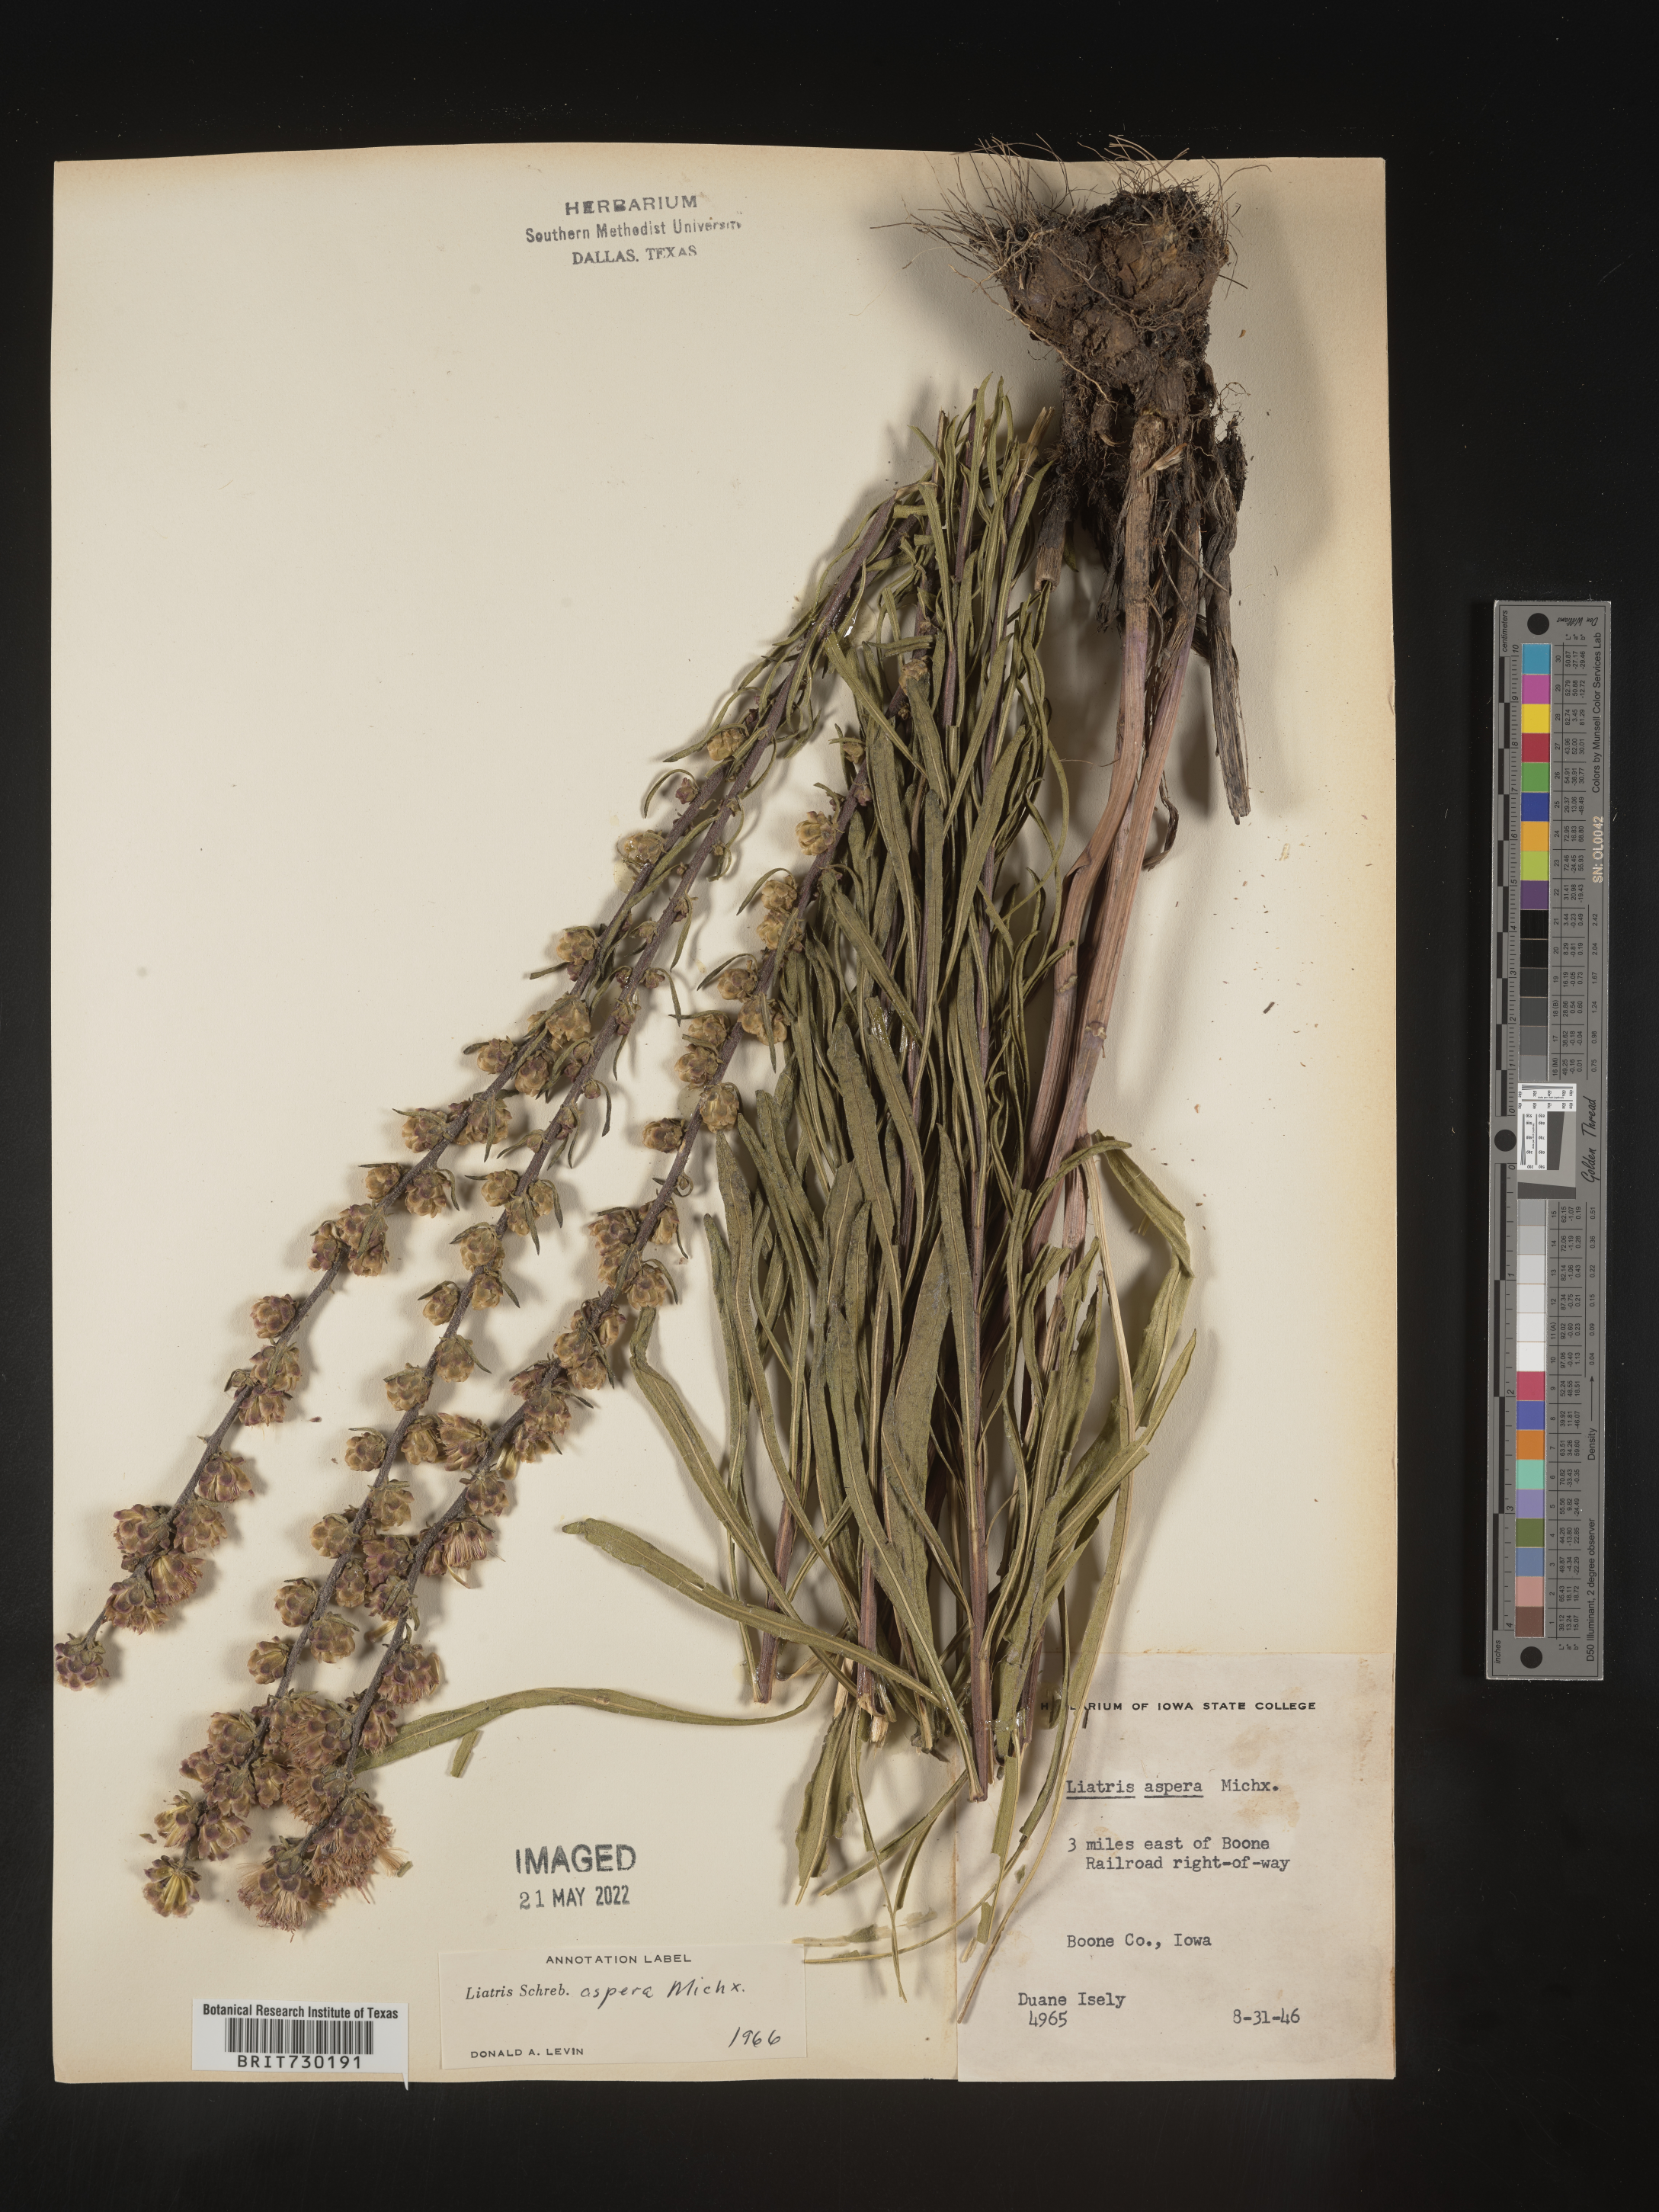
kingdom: Plantae
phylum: Tracheophyta
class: Magnoliopsida
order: Asterales
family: Asteraceae
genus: Liatris
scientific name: Liatris aspera
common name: Lacerate blazing-star
